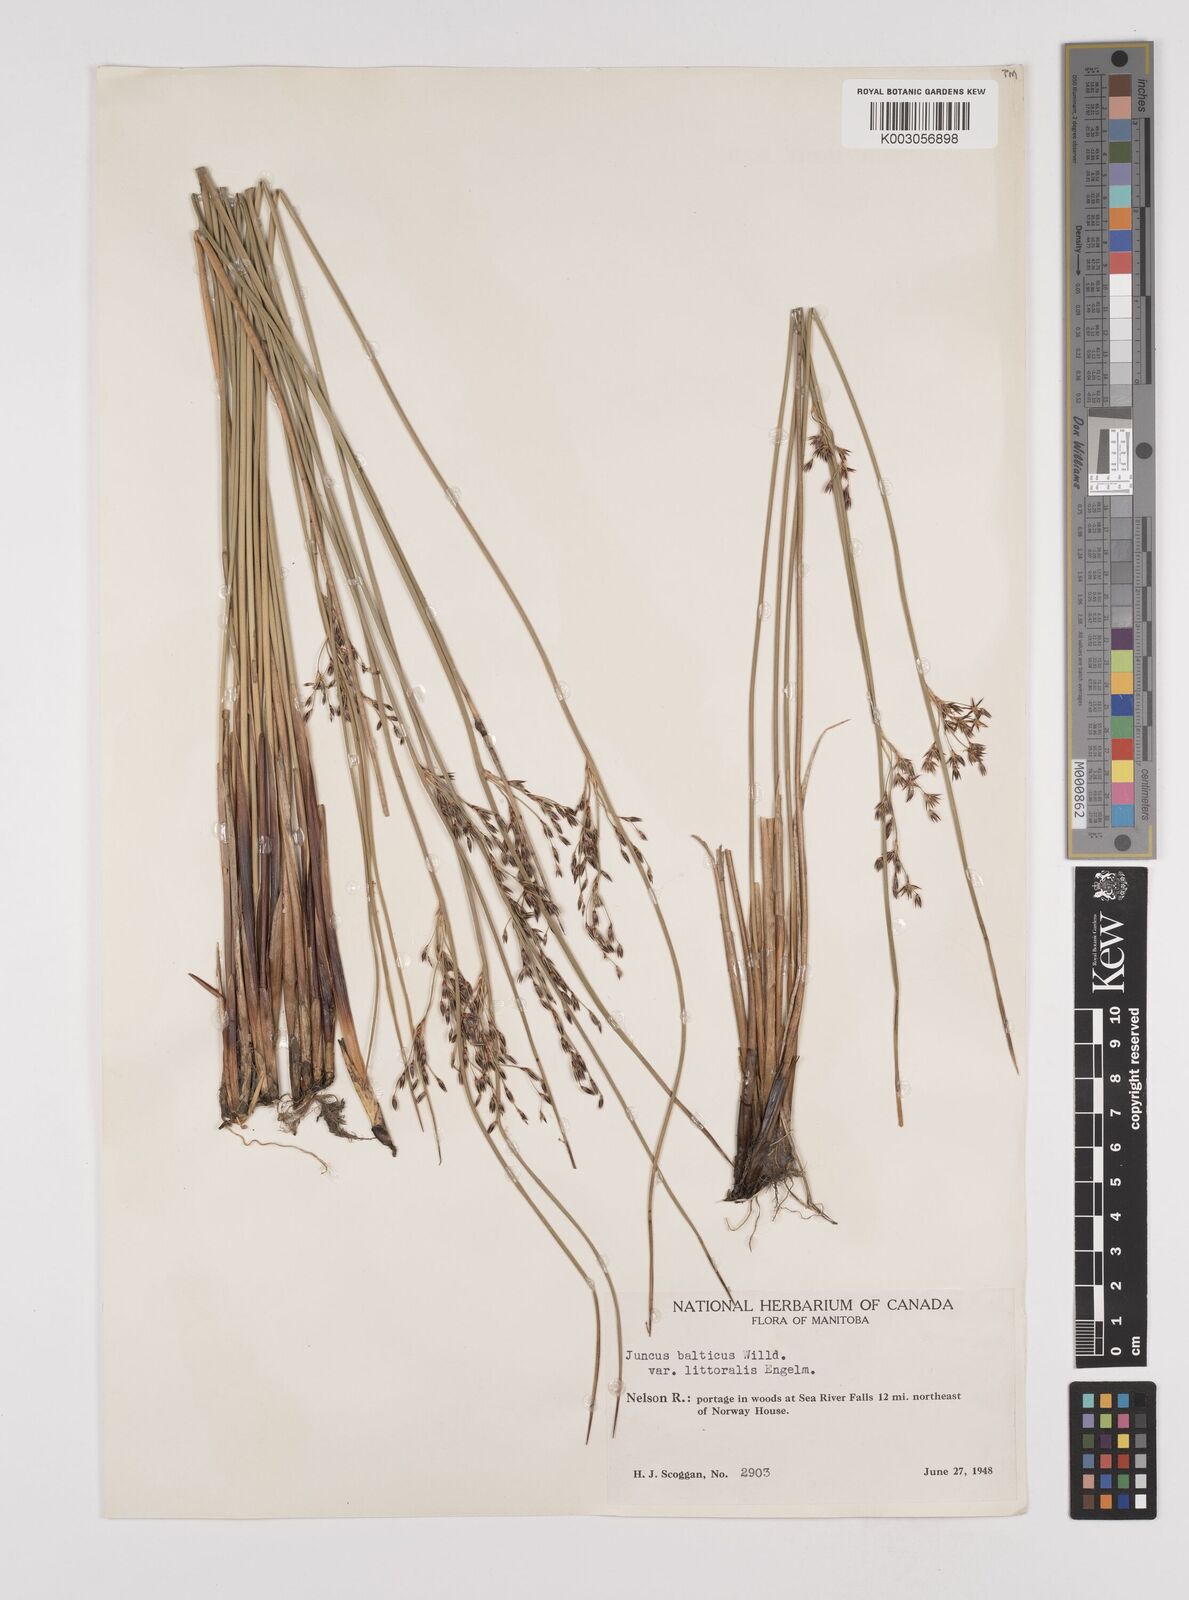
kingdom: Plantae
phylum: Tracheophyta
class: Liliopsida
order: Poales
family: Juncaceae
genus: Juncus
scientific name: Juncus balticus
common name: Baltic rush
